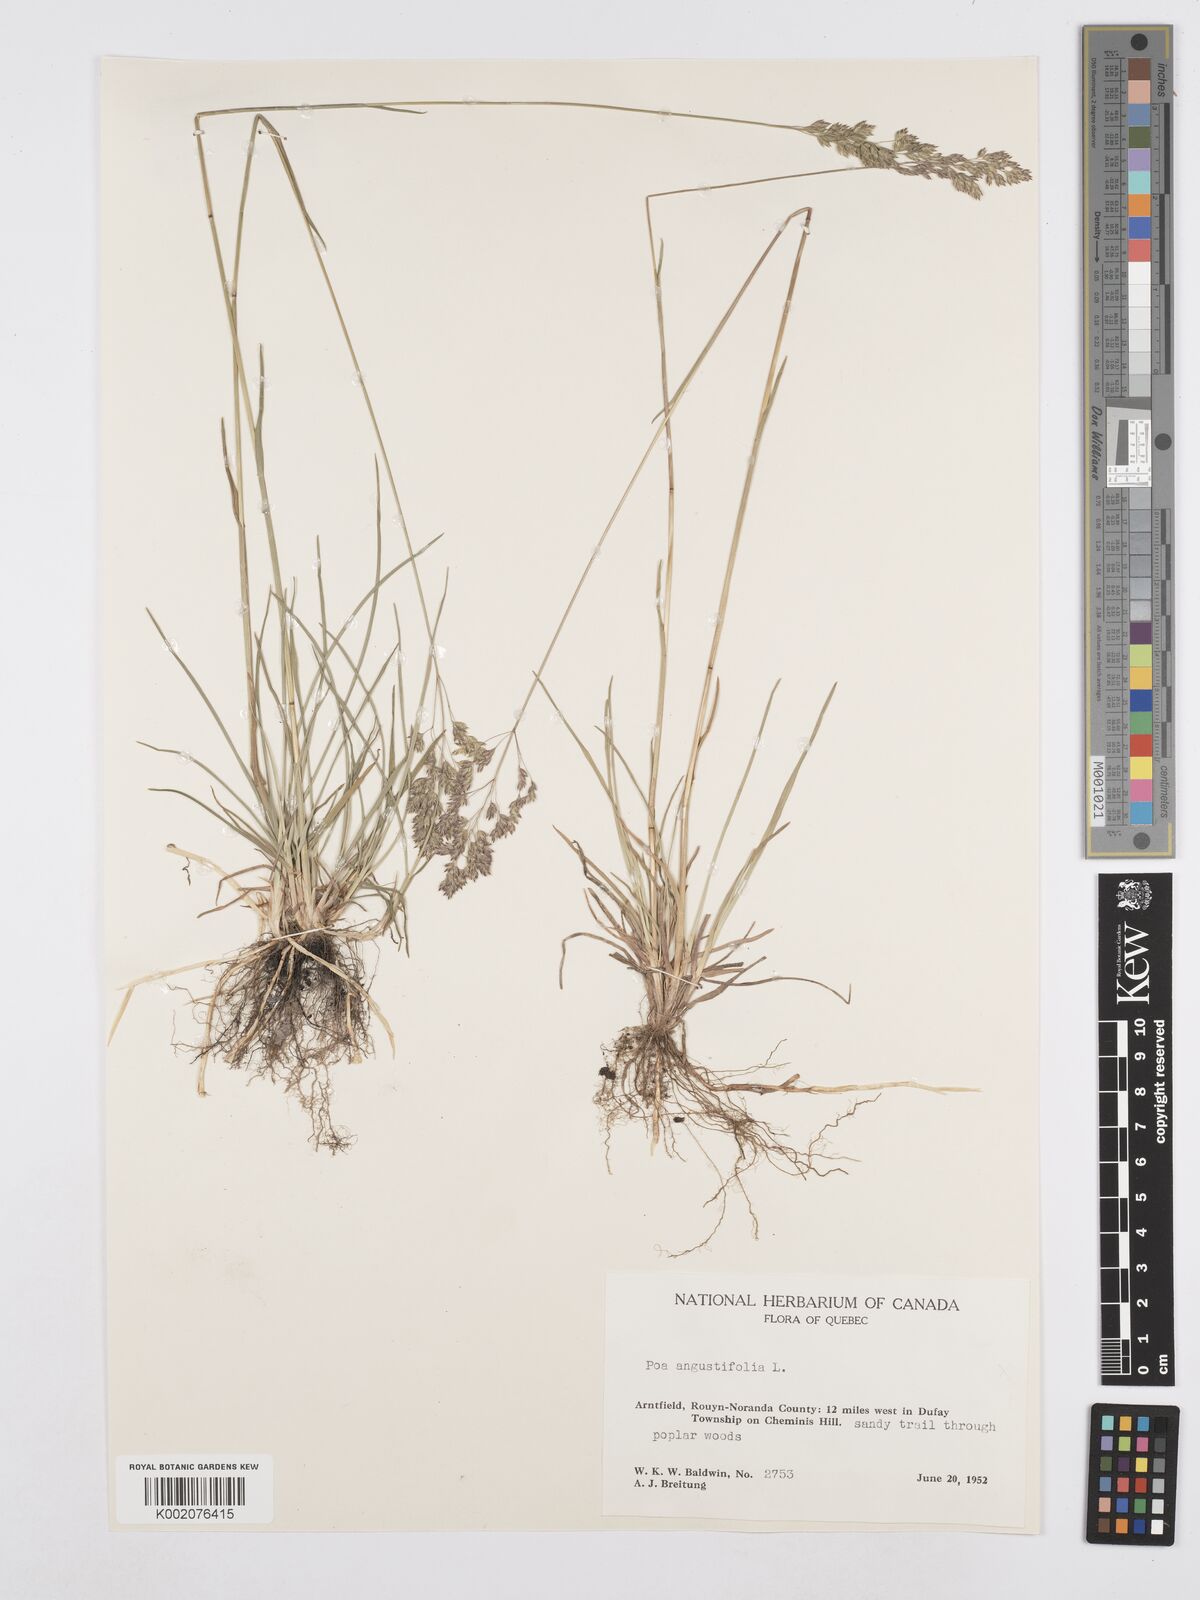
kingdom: Plantae
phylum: Tracheophyta
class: Liliopsida
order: Poales
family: Poaceae
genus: Poa
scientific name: Poa angustifolia
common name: Narrow-leaved meadow-grass
